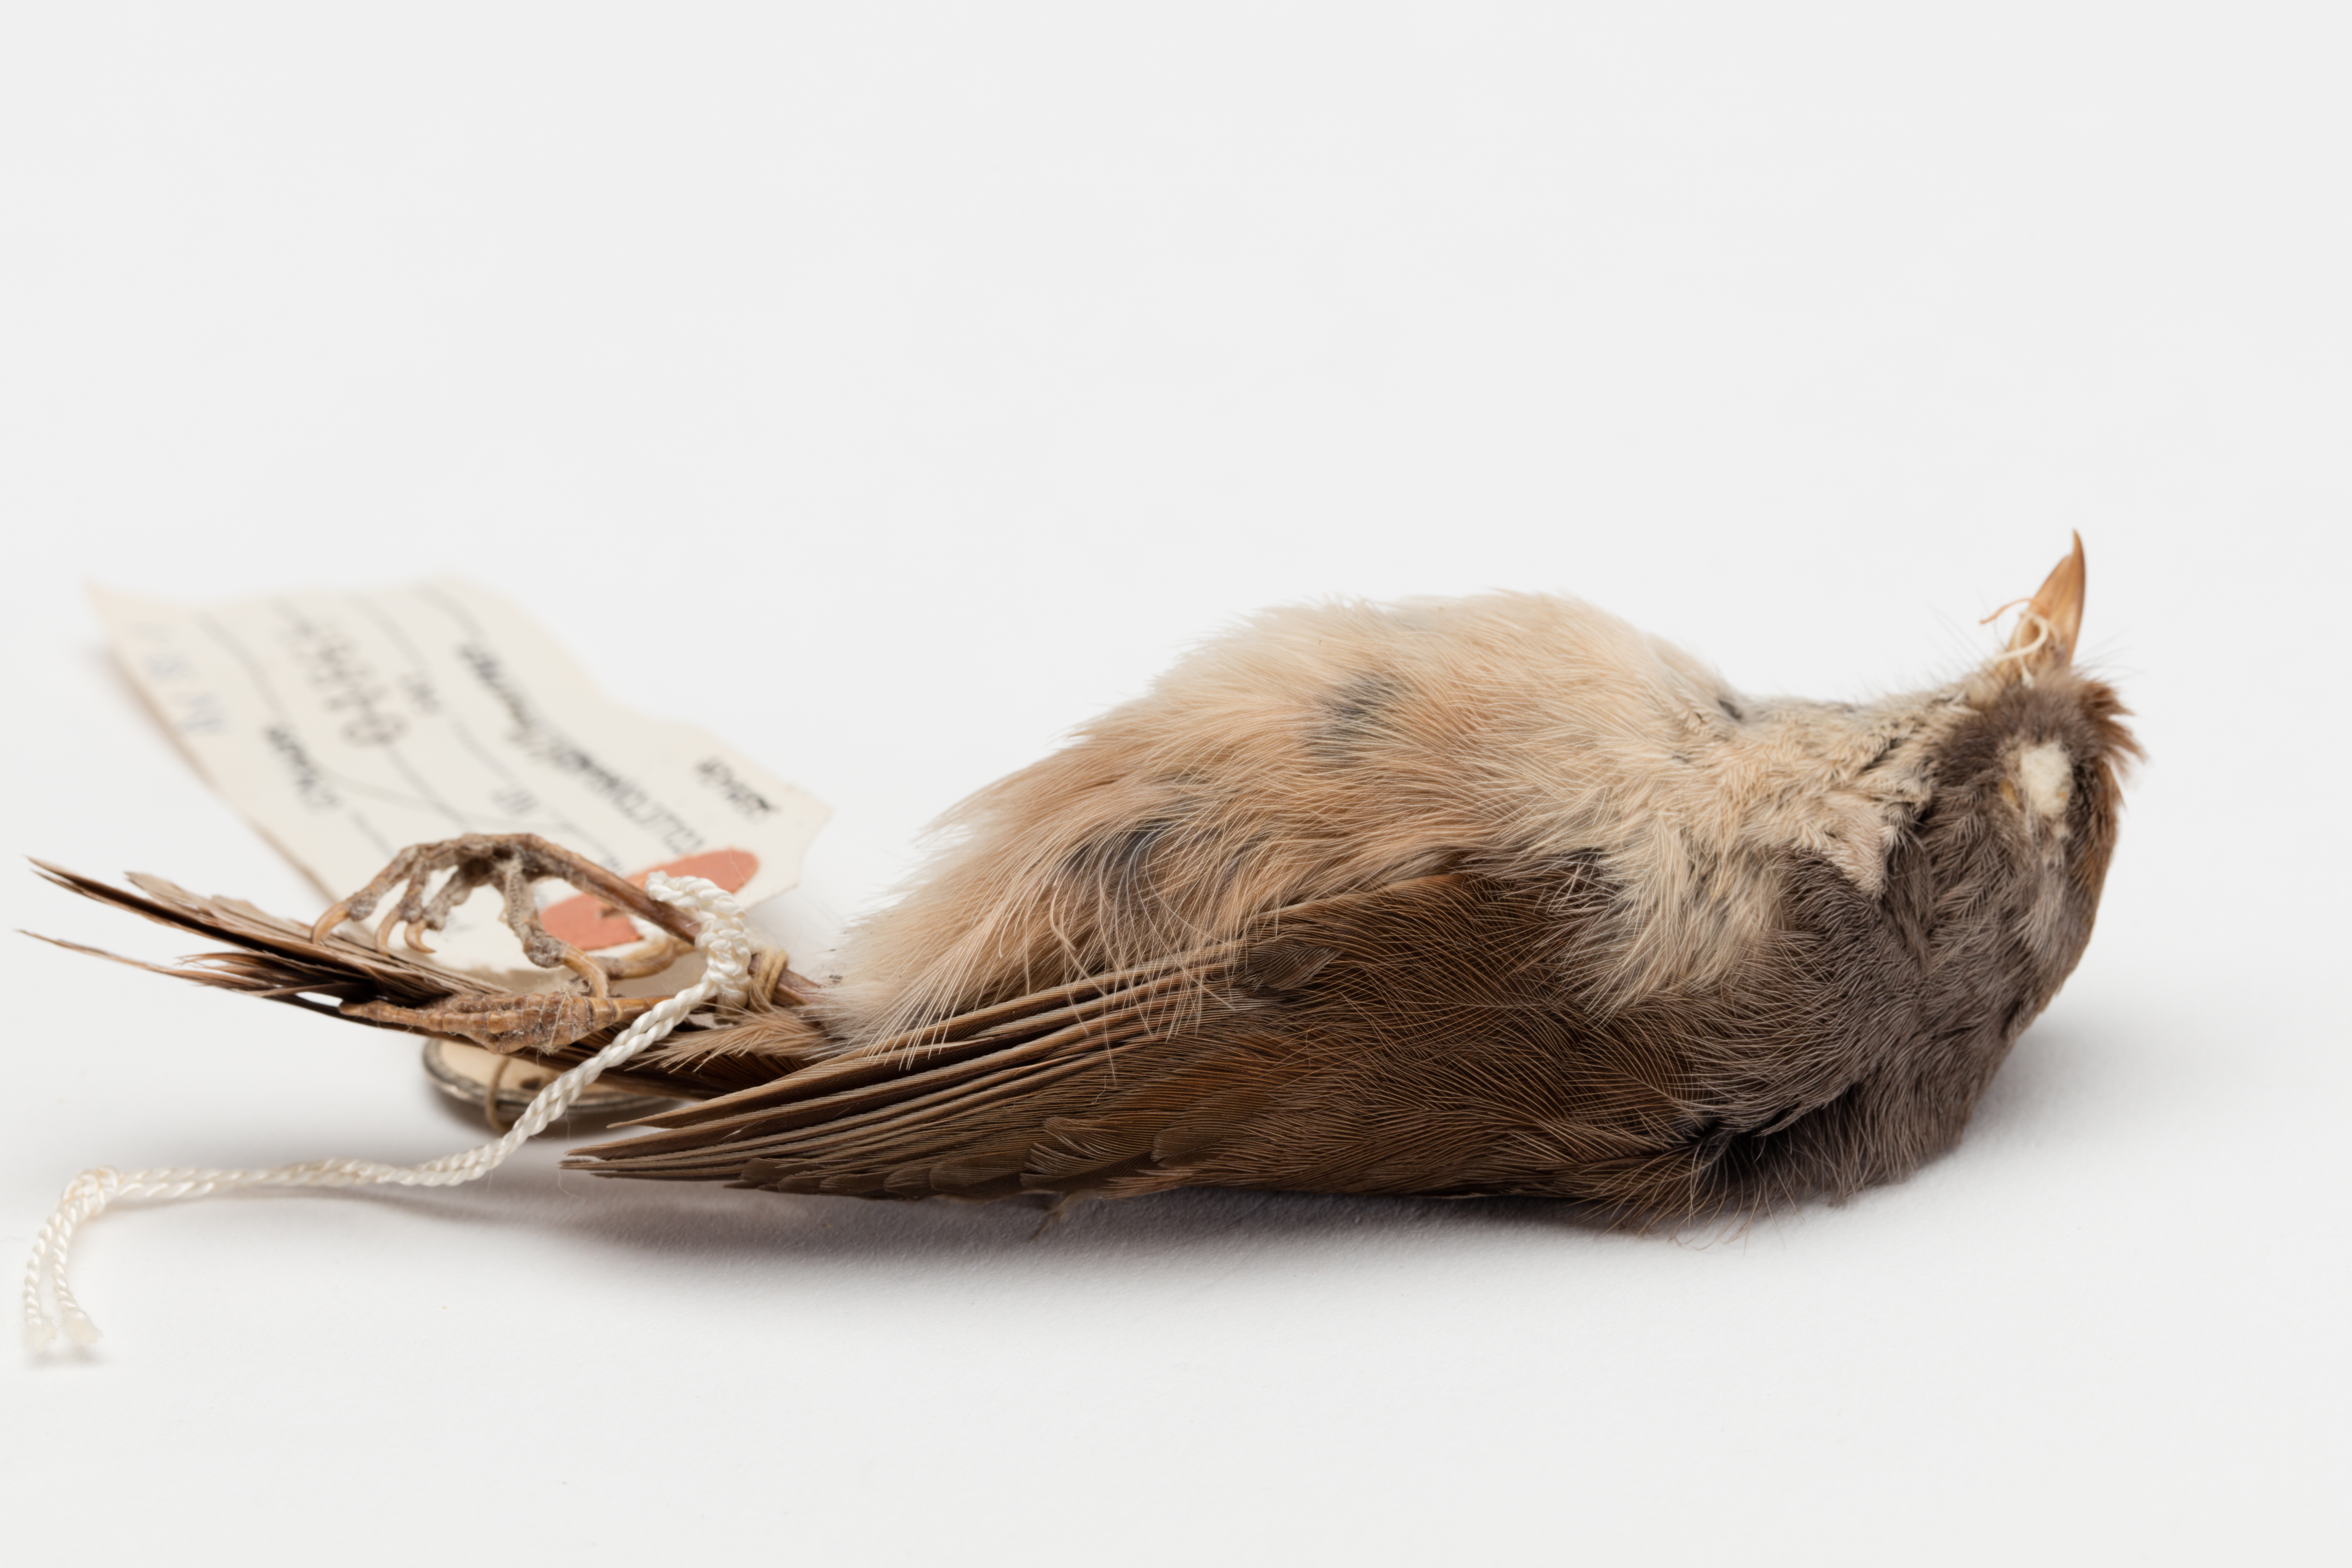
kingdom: Animalia
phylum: Chordata
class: Aves
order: Passeriformes
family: Acanthizidae
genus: Finschia
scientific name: Finschia novaeseelandiae
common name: Pipipi
